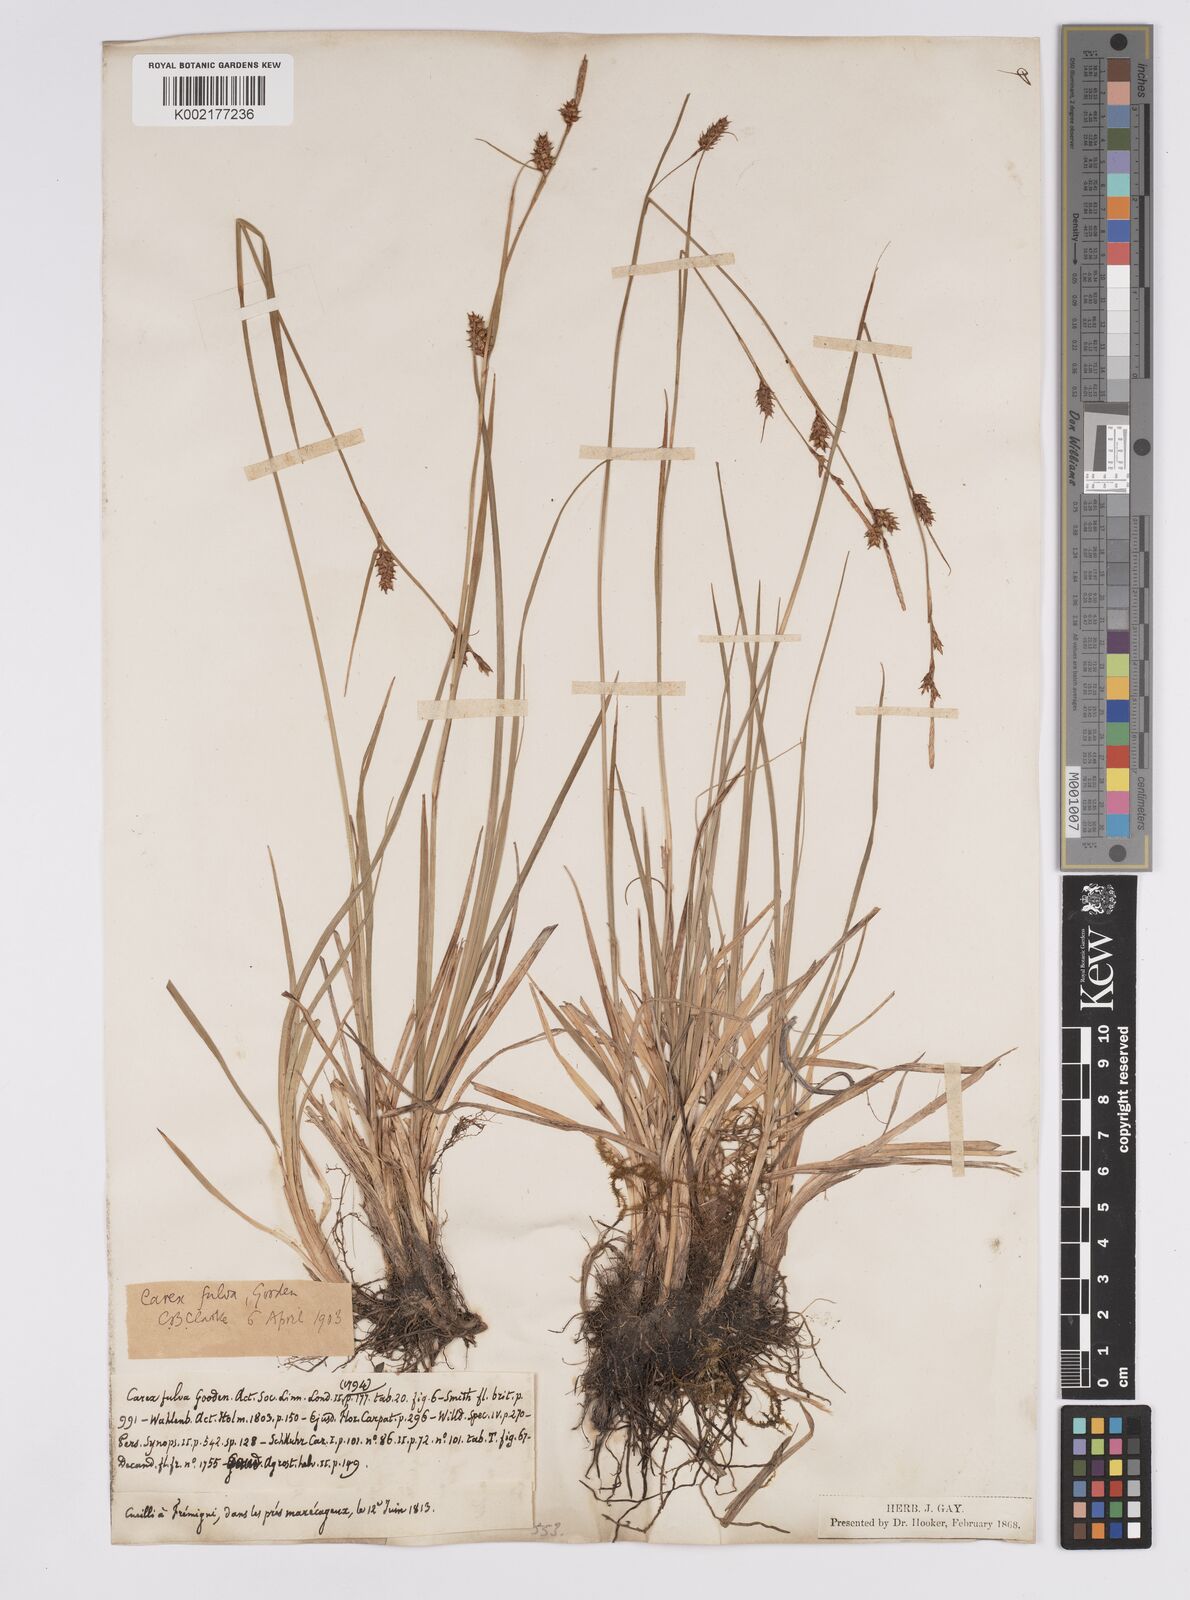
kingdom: Plantae
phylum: Tracheophyta
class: Liliopsida
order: Poales
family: Cyperaceae
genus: Carex
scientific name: Carex hostiana
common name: Tawny sedge
